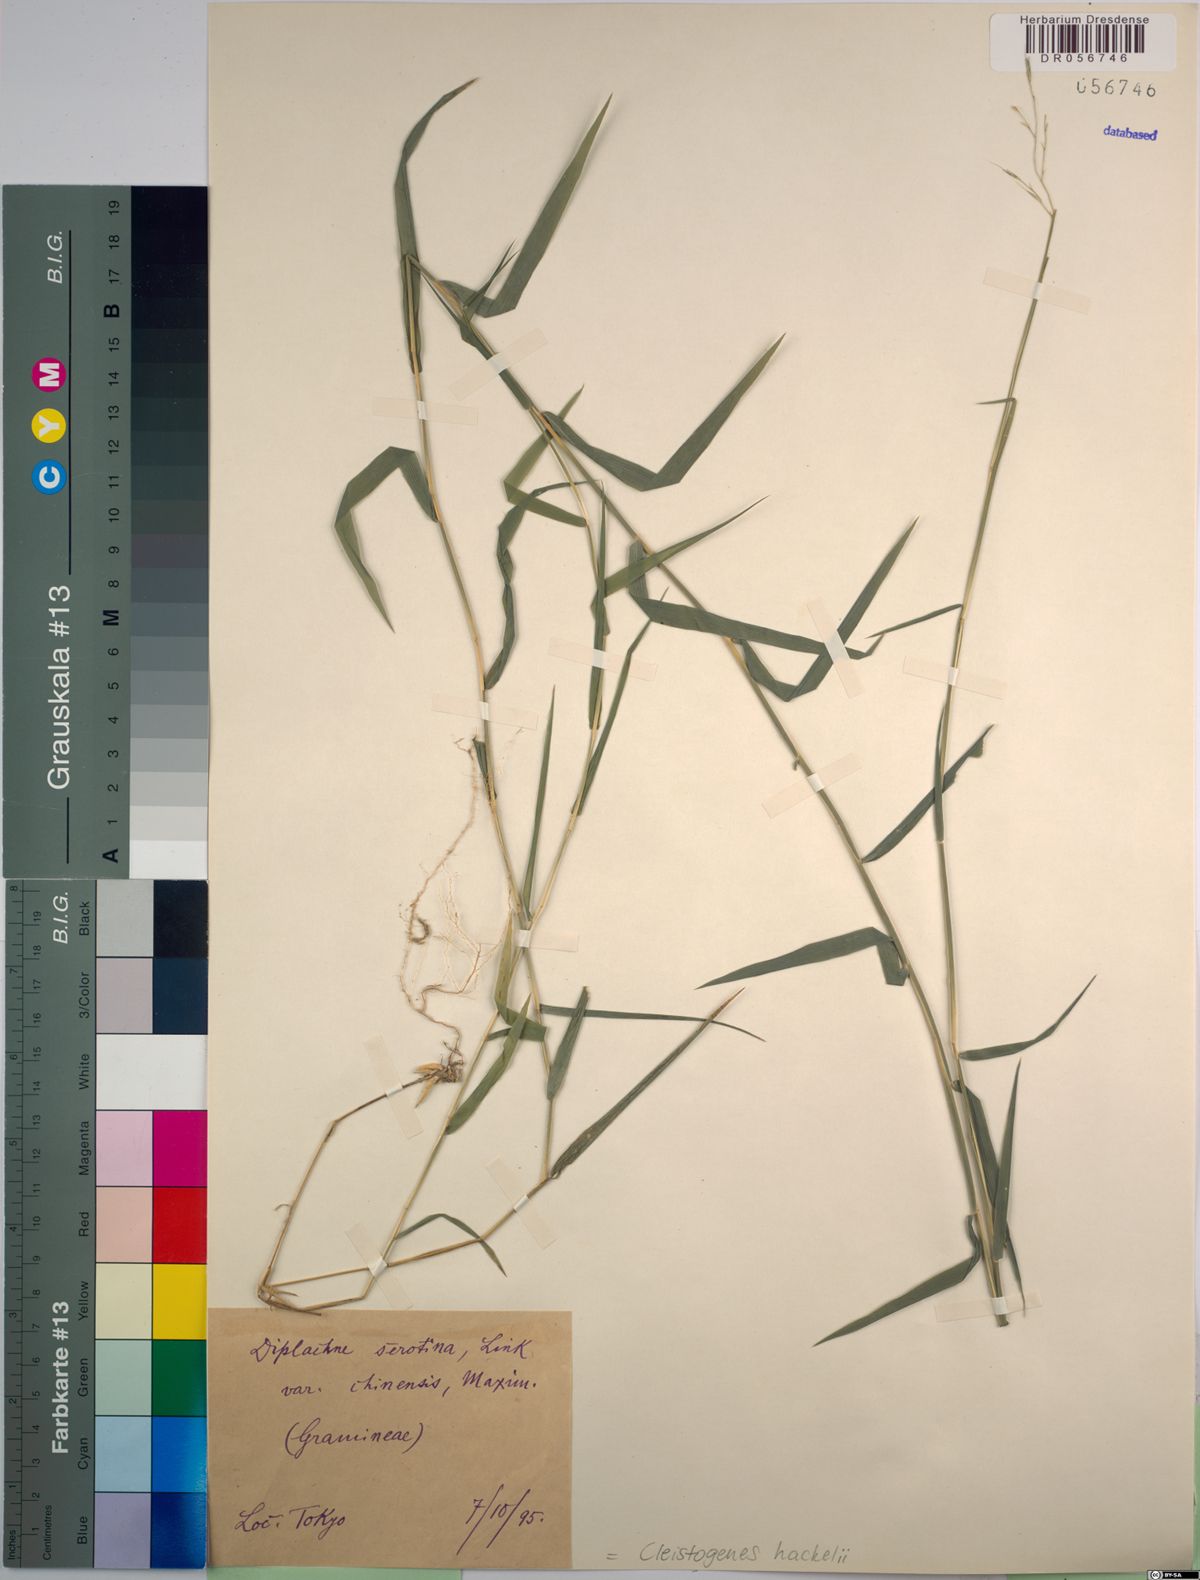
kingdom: Plantae
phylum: Tracheophyta
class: Liliopsida
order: Poales
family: Poaceae
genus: Cleistogenes
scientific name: Cleistogenes hackelii
